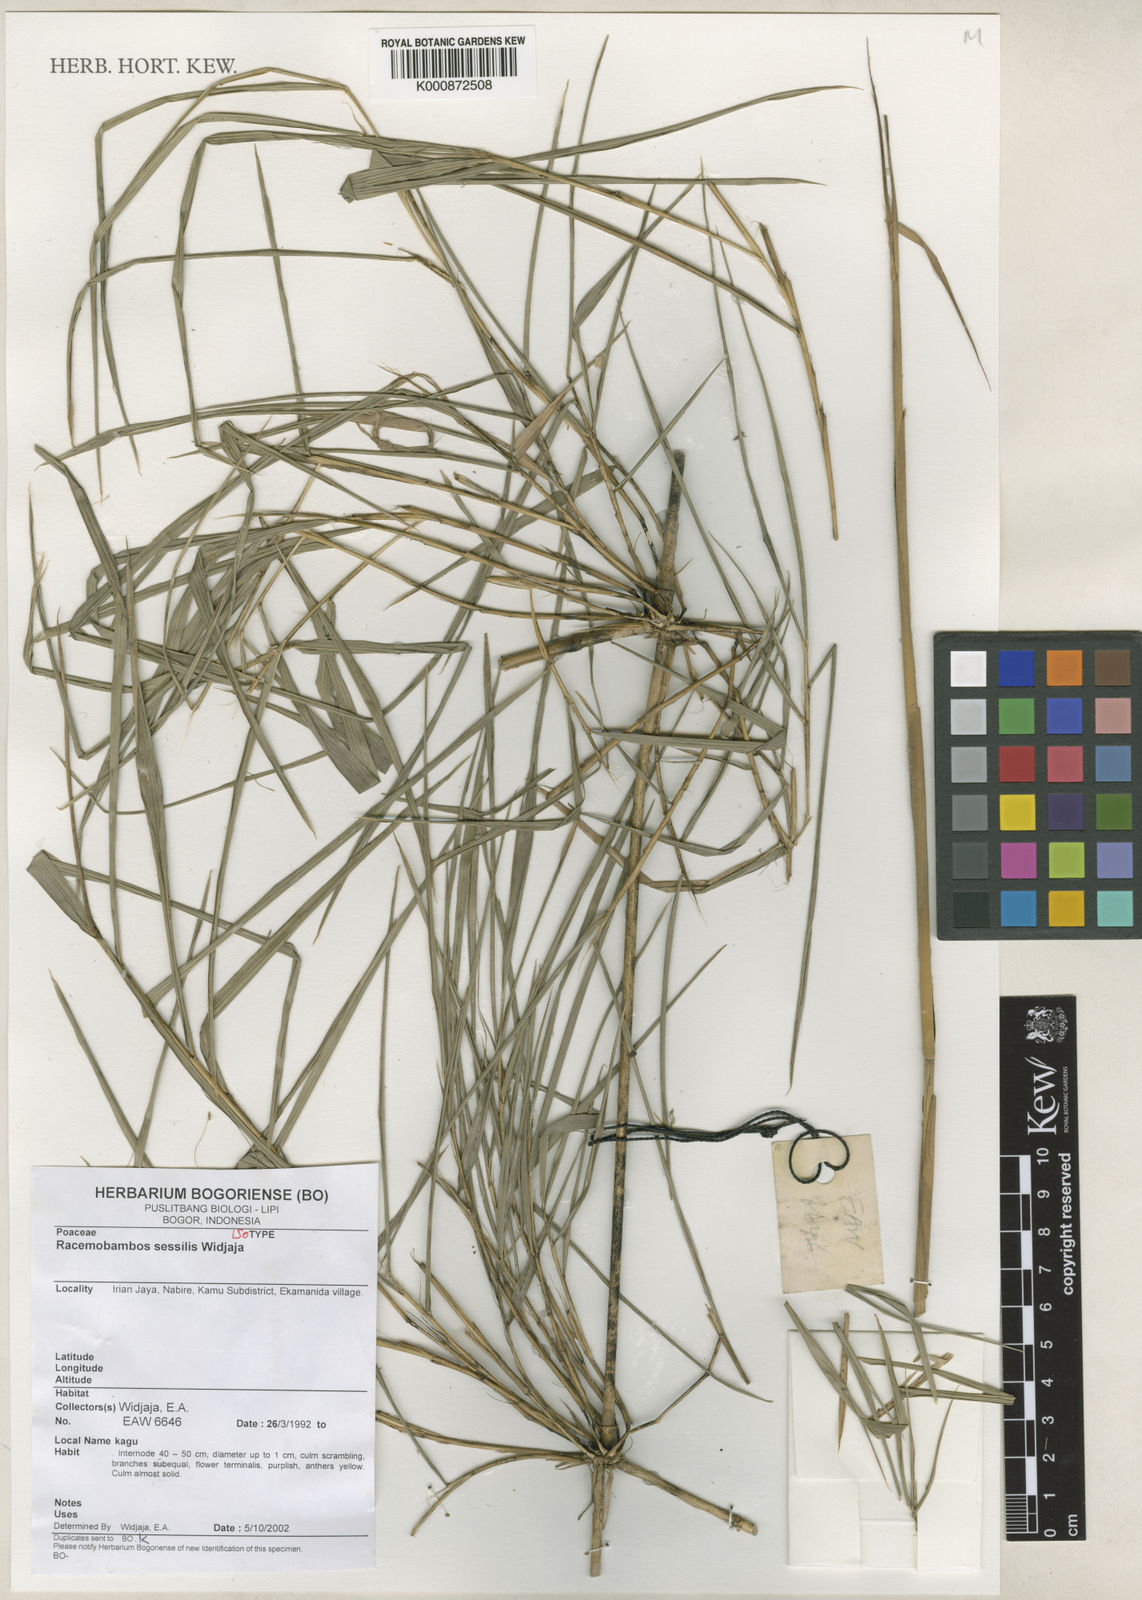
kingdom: Plantae
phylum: Tracheophyta
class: Liliopsida
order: Poales
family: Poaceae
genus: Racemobambos
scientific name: Racemobambos sessilis
